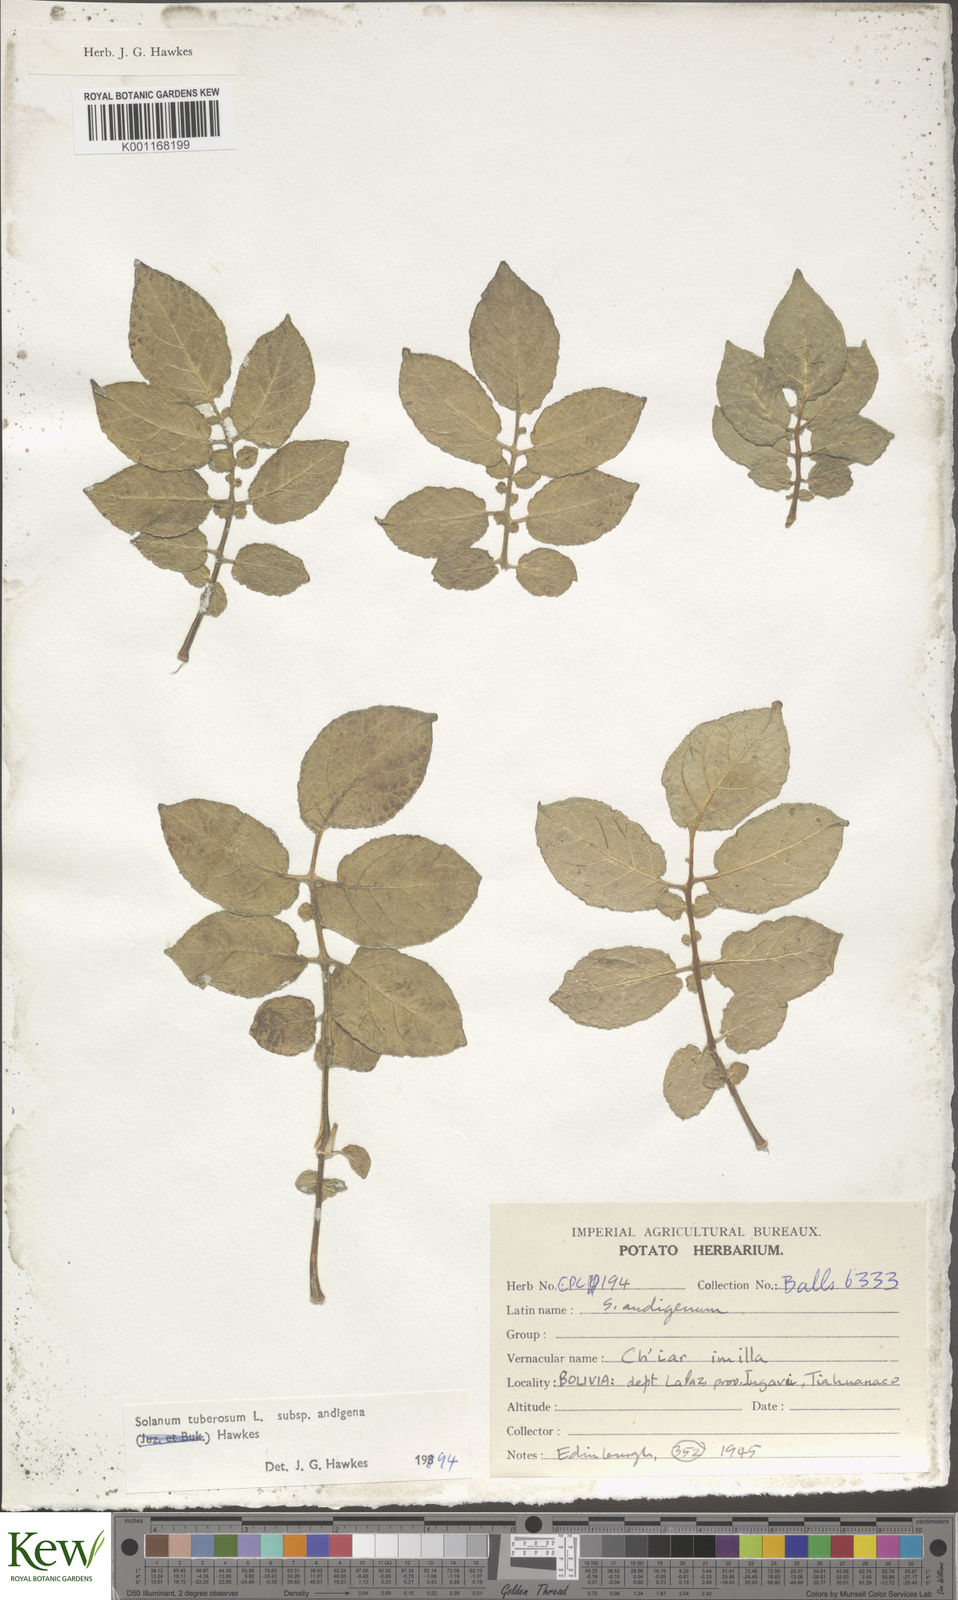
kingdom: Plantae
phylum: Tracheophyta
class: Magnoliopsida
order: Solanales
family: Solanaceae
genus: Solanum
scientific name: Solanum tuberosum
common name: Potato
